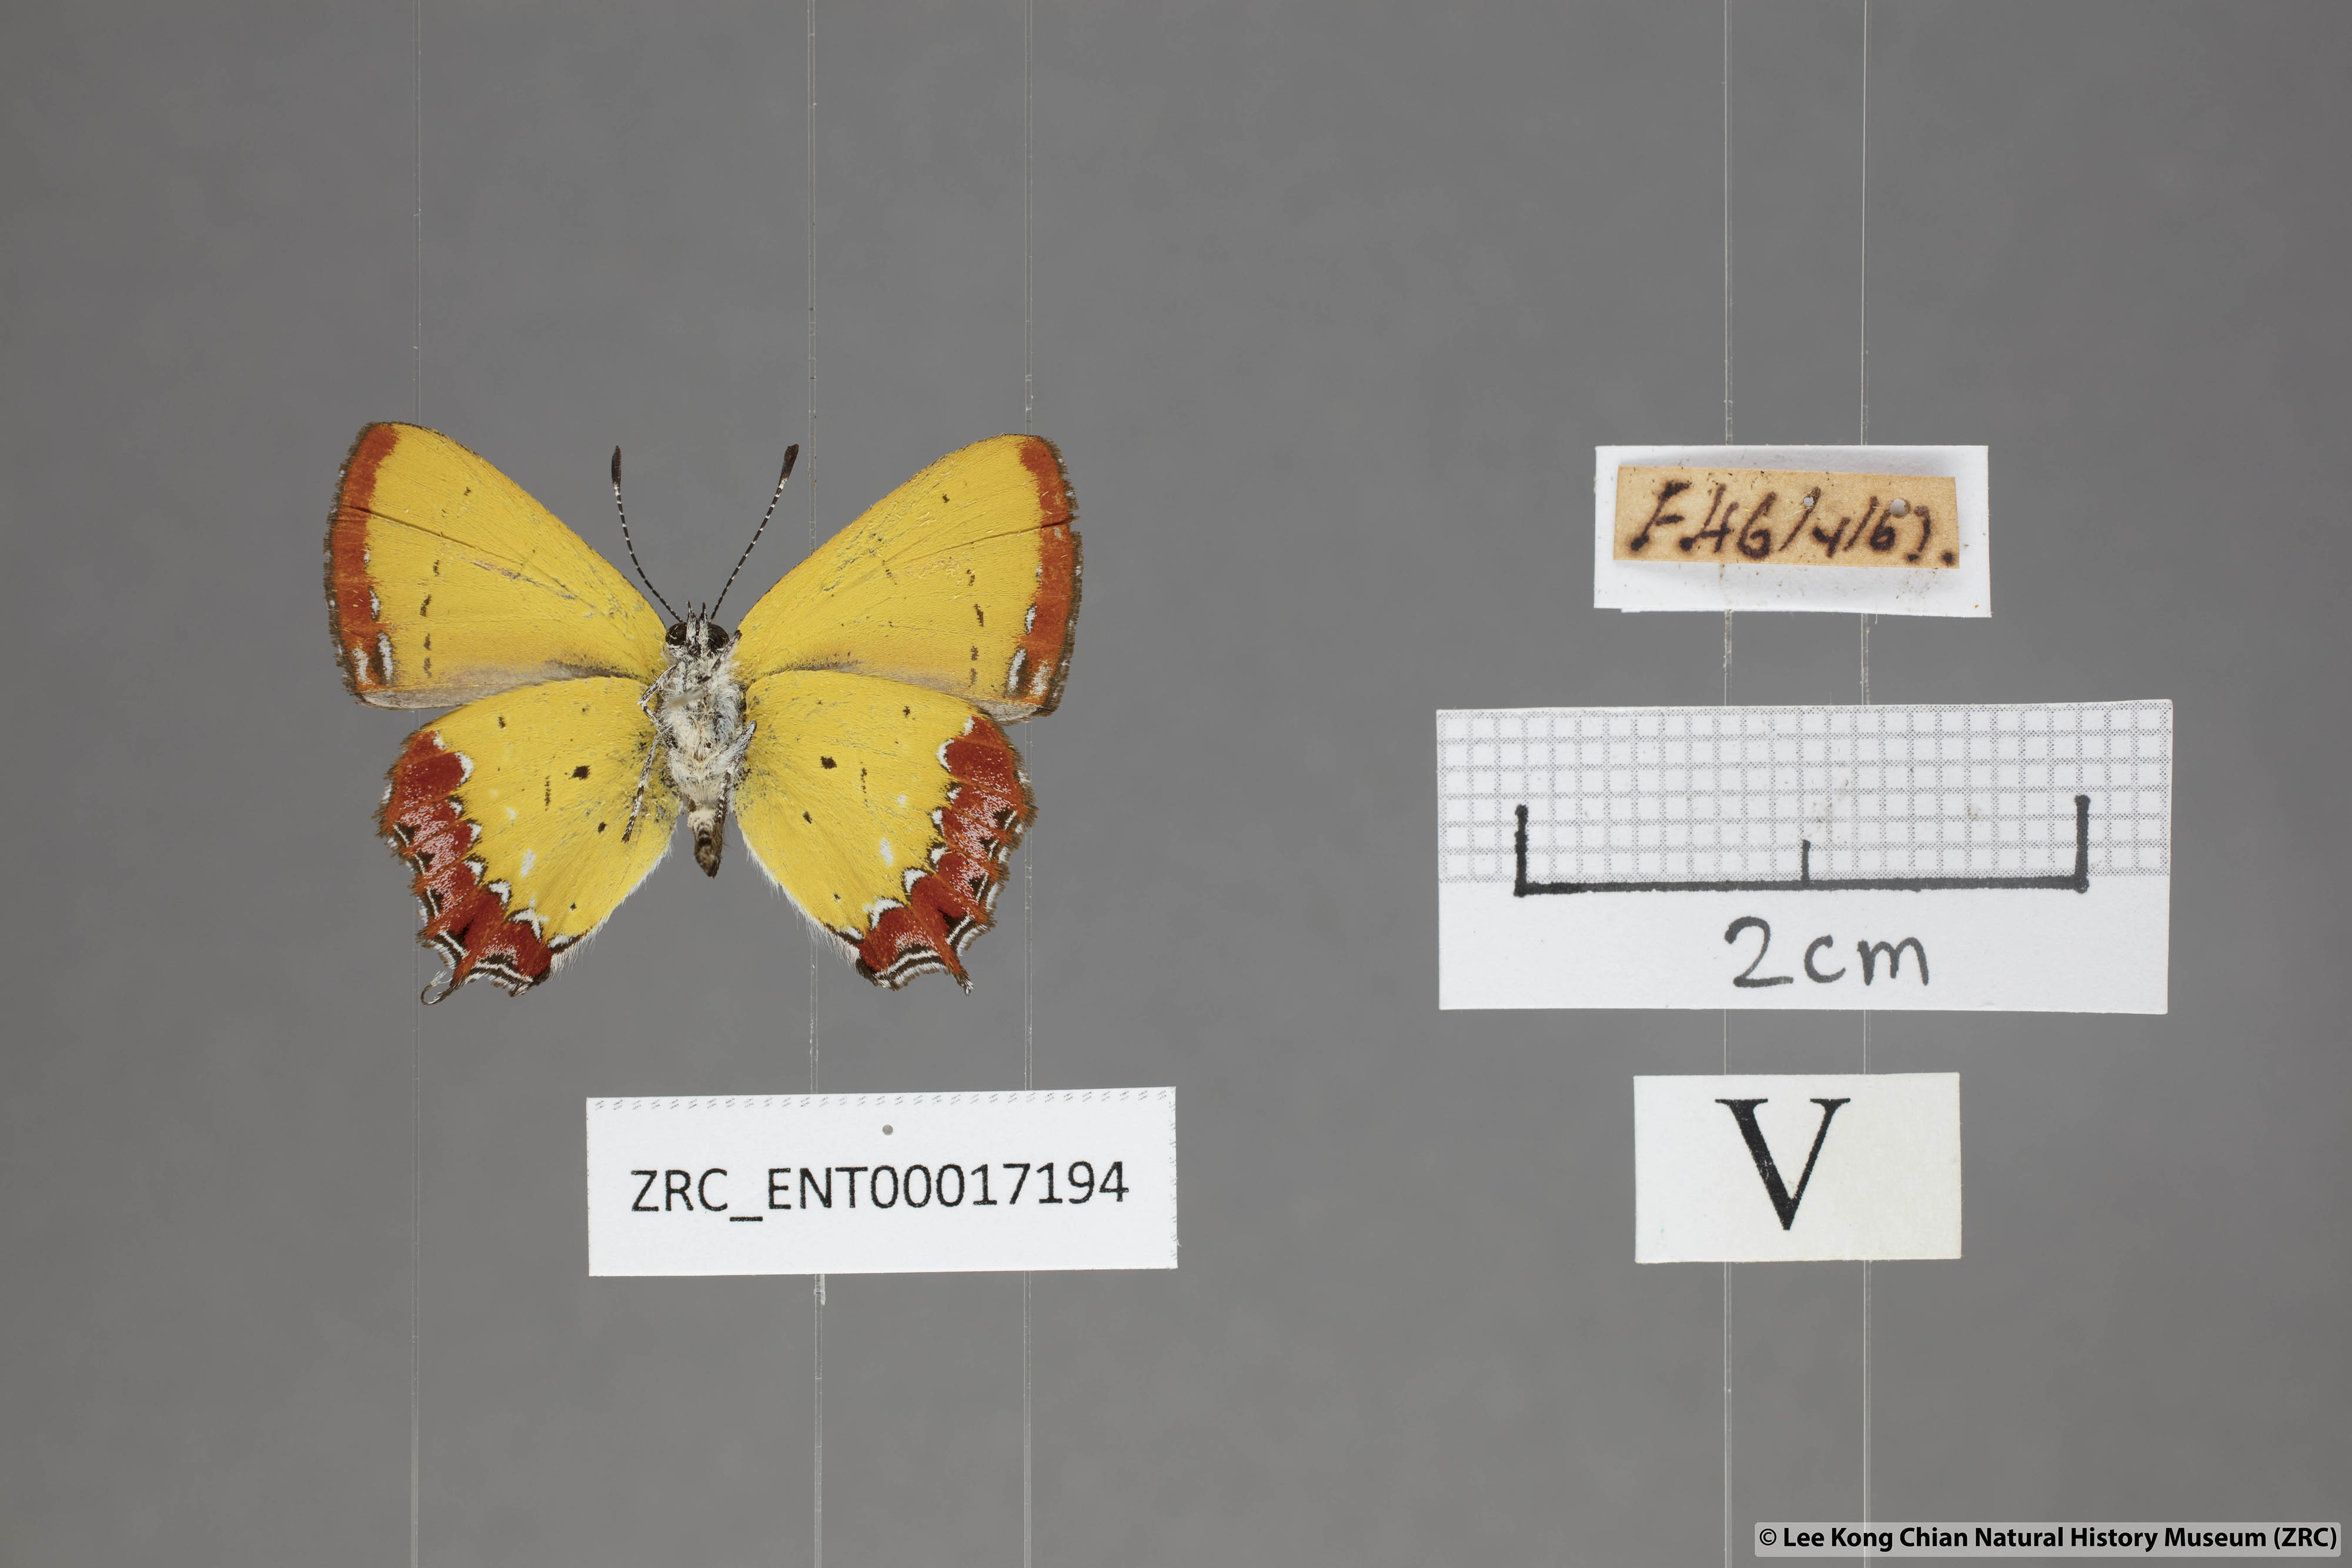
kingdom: Animalia
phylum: Arthropoda
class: Insecta
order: Lepidoptera
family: Lycaenidae
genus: Heliophorus
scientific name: Heliophorus epicles
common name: Purple sapphire
